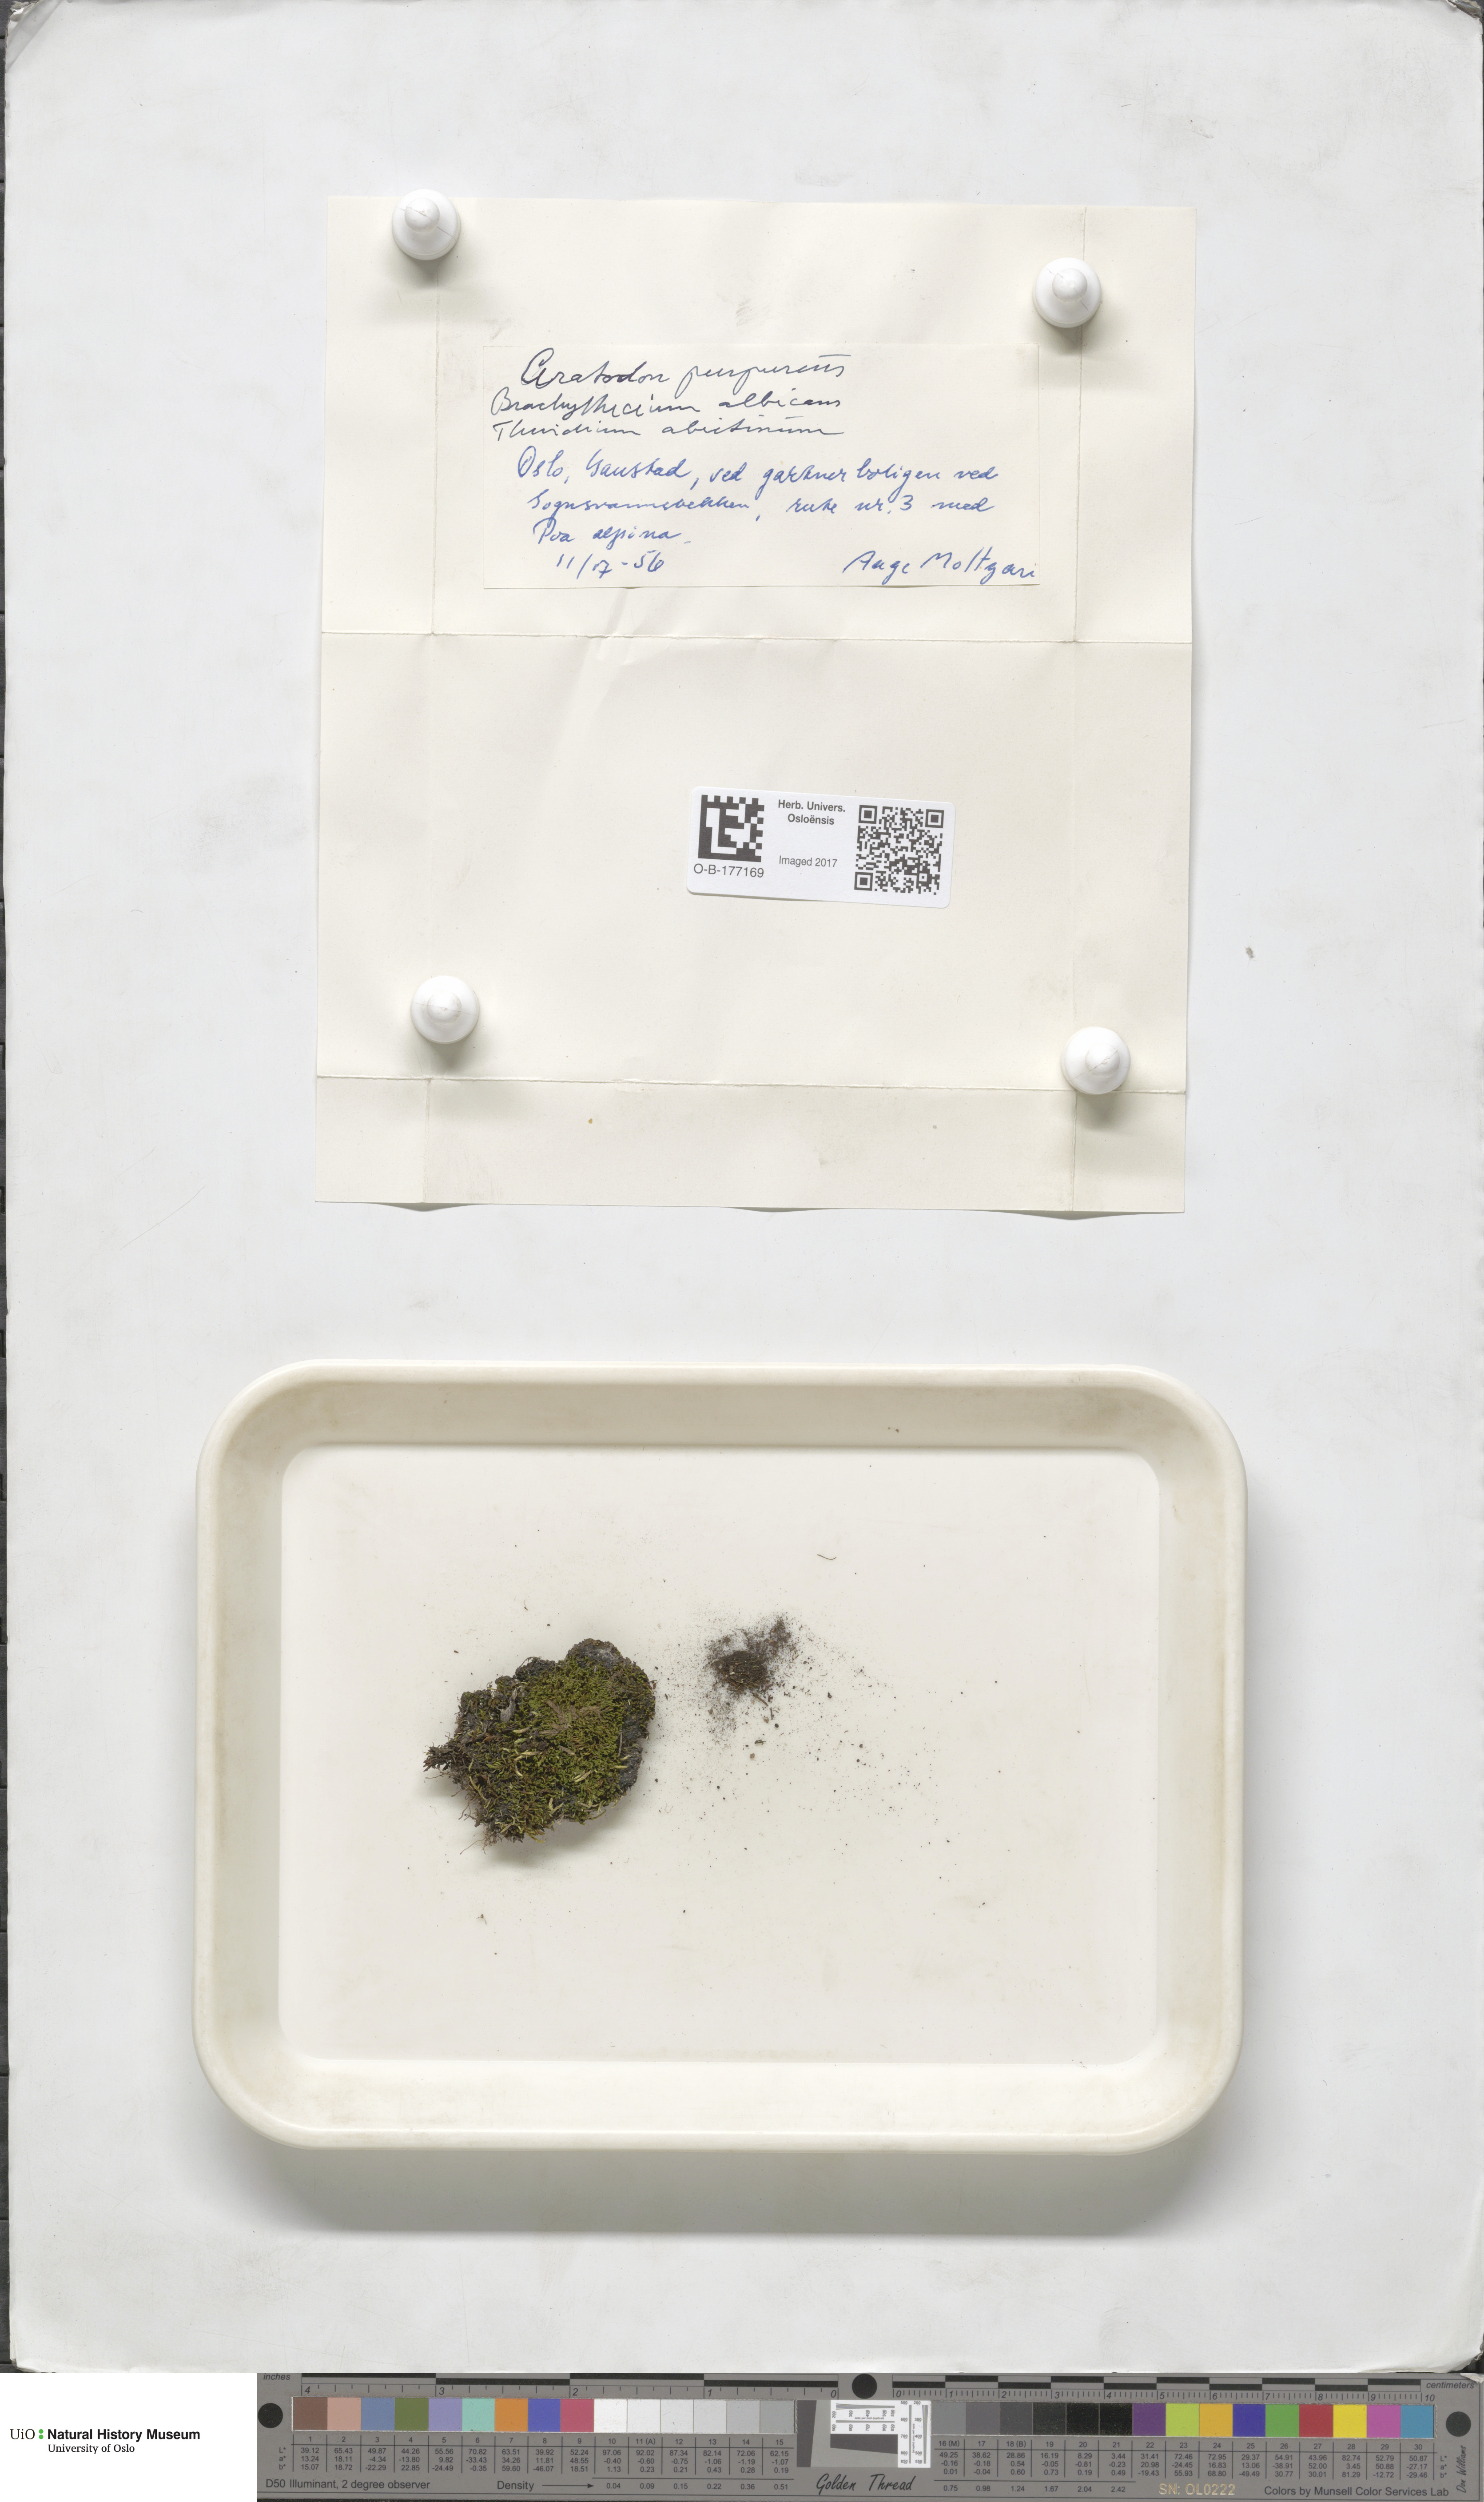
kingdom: Plantae
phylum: Bryophyta
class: Bryopsida
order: Dicranales
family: Ditrichaceae
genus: Ceratodon
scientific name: Ceratodon purpureus
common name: Redshank
